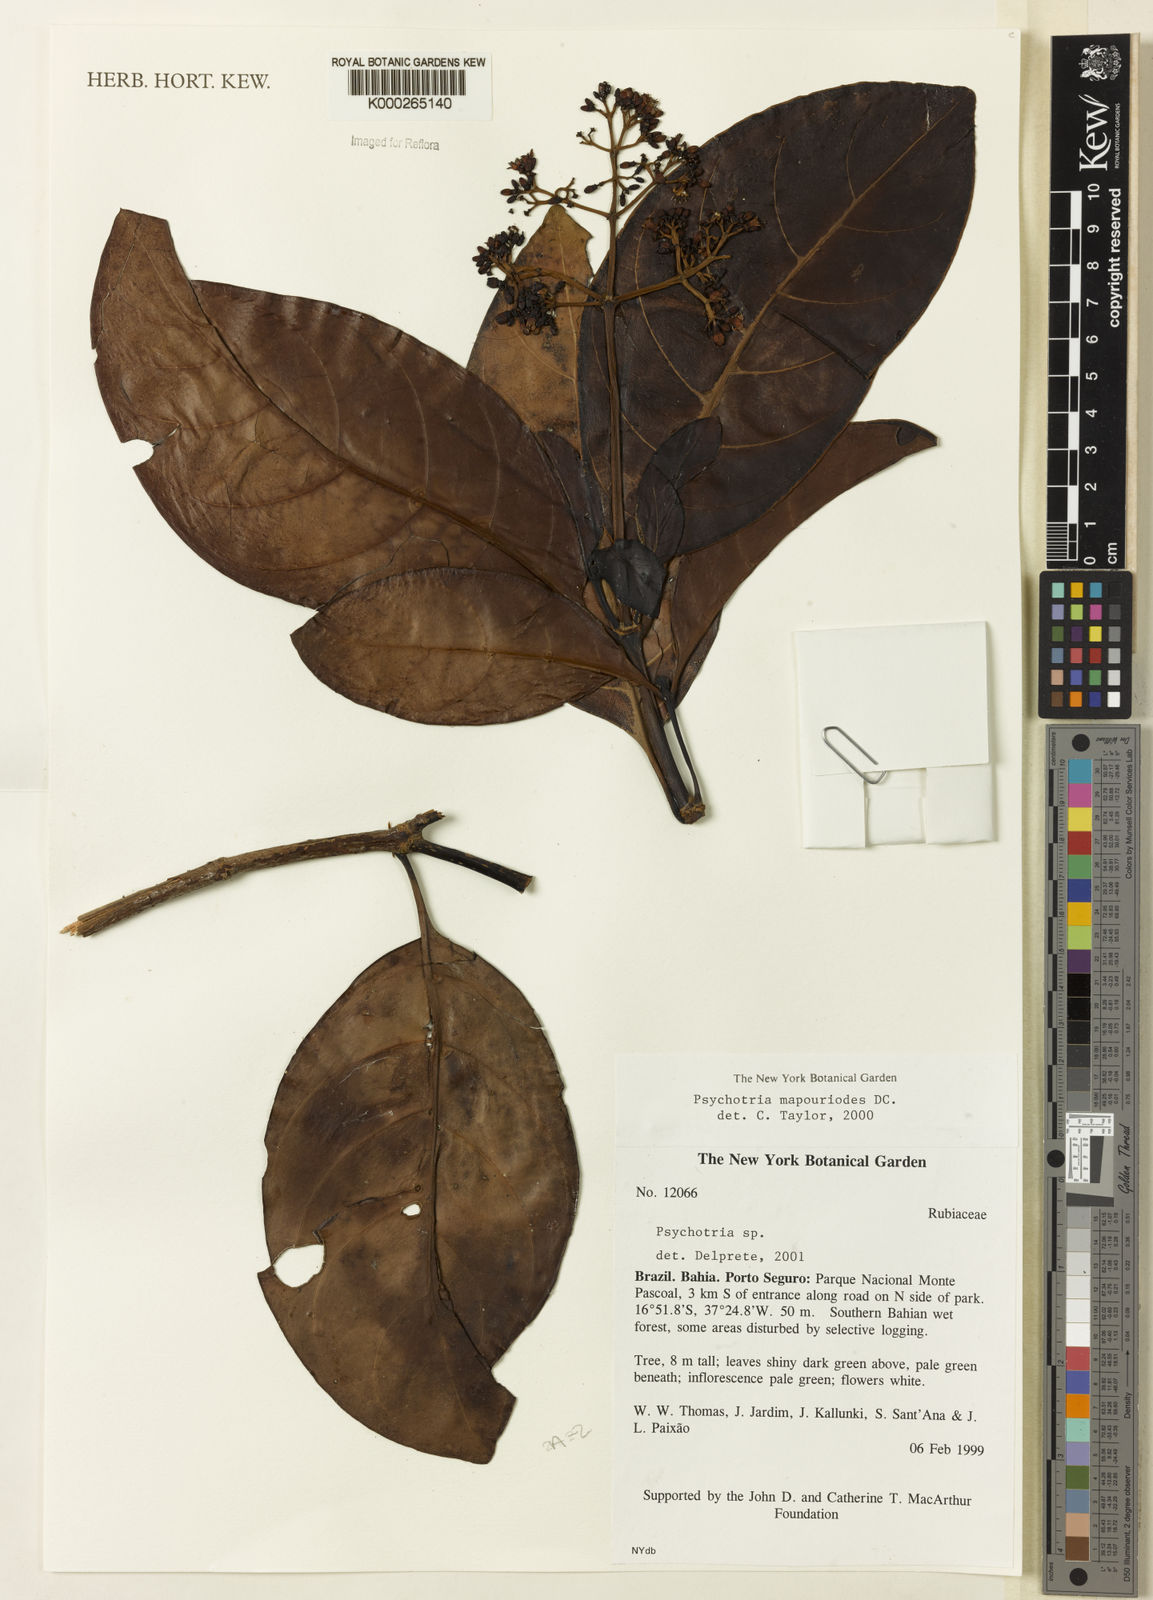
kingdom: Plantae
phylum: Tracheophyta
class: Magnoliopsida
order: Gentianales
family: Rubiaceae
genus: Psychotria
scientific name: Psychotria pedunculosa
